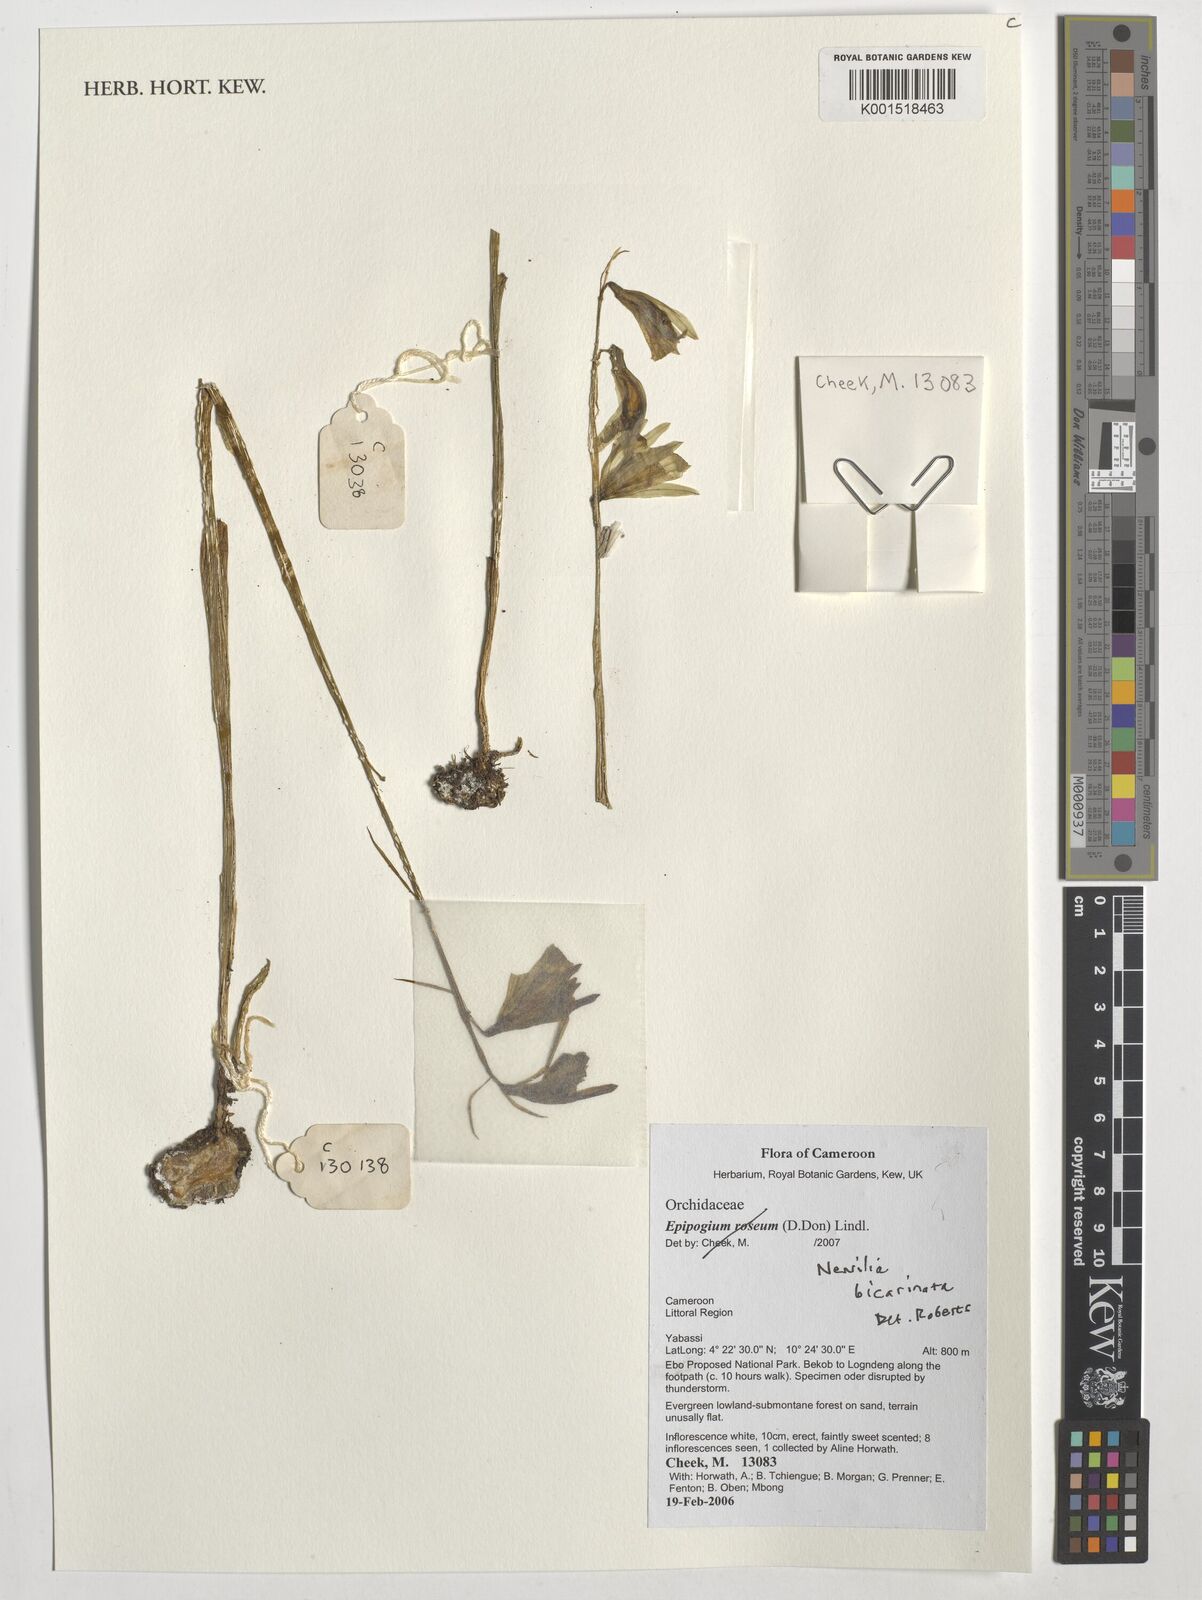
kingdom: Plantae
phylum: Tracheophyta
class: Liliopsida
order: Asparagales
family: Orchidaceae
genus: Nervilia
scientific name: Nervilia bicarinata
